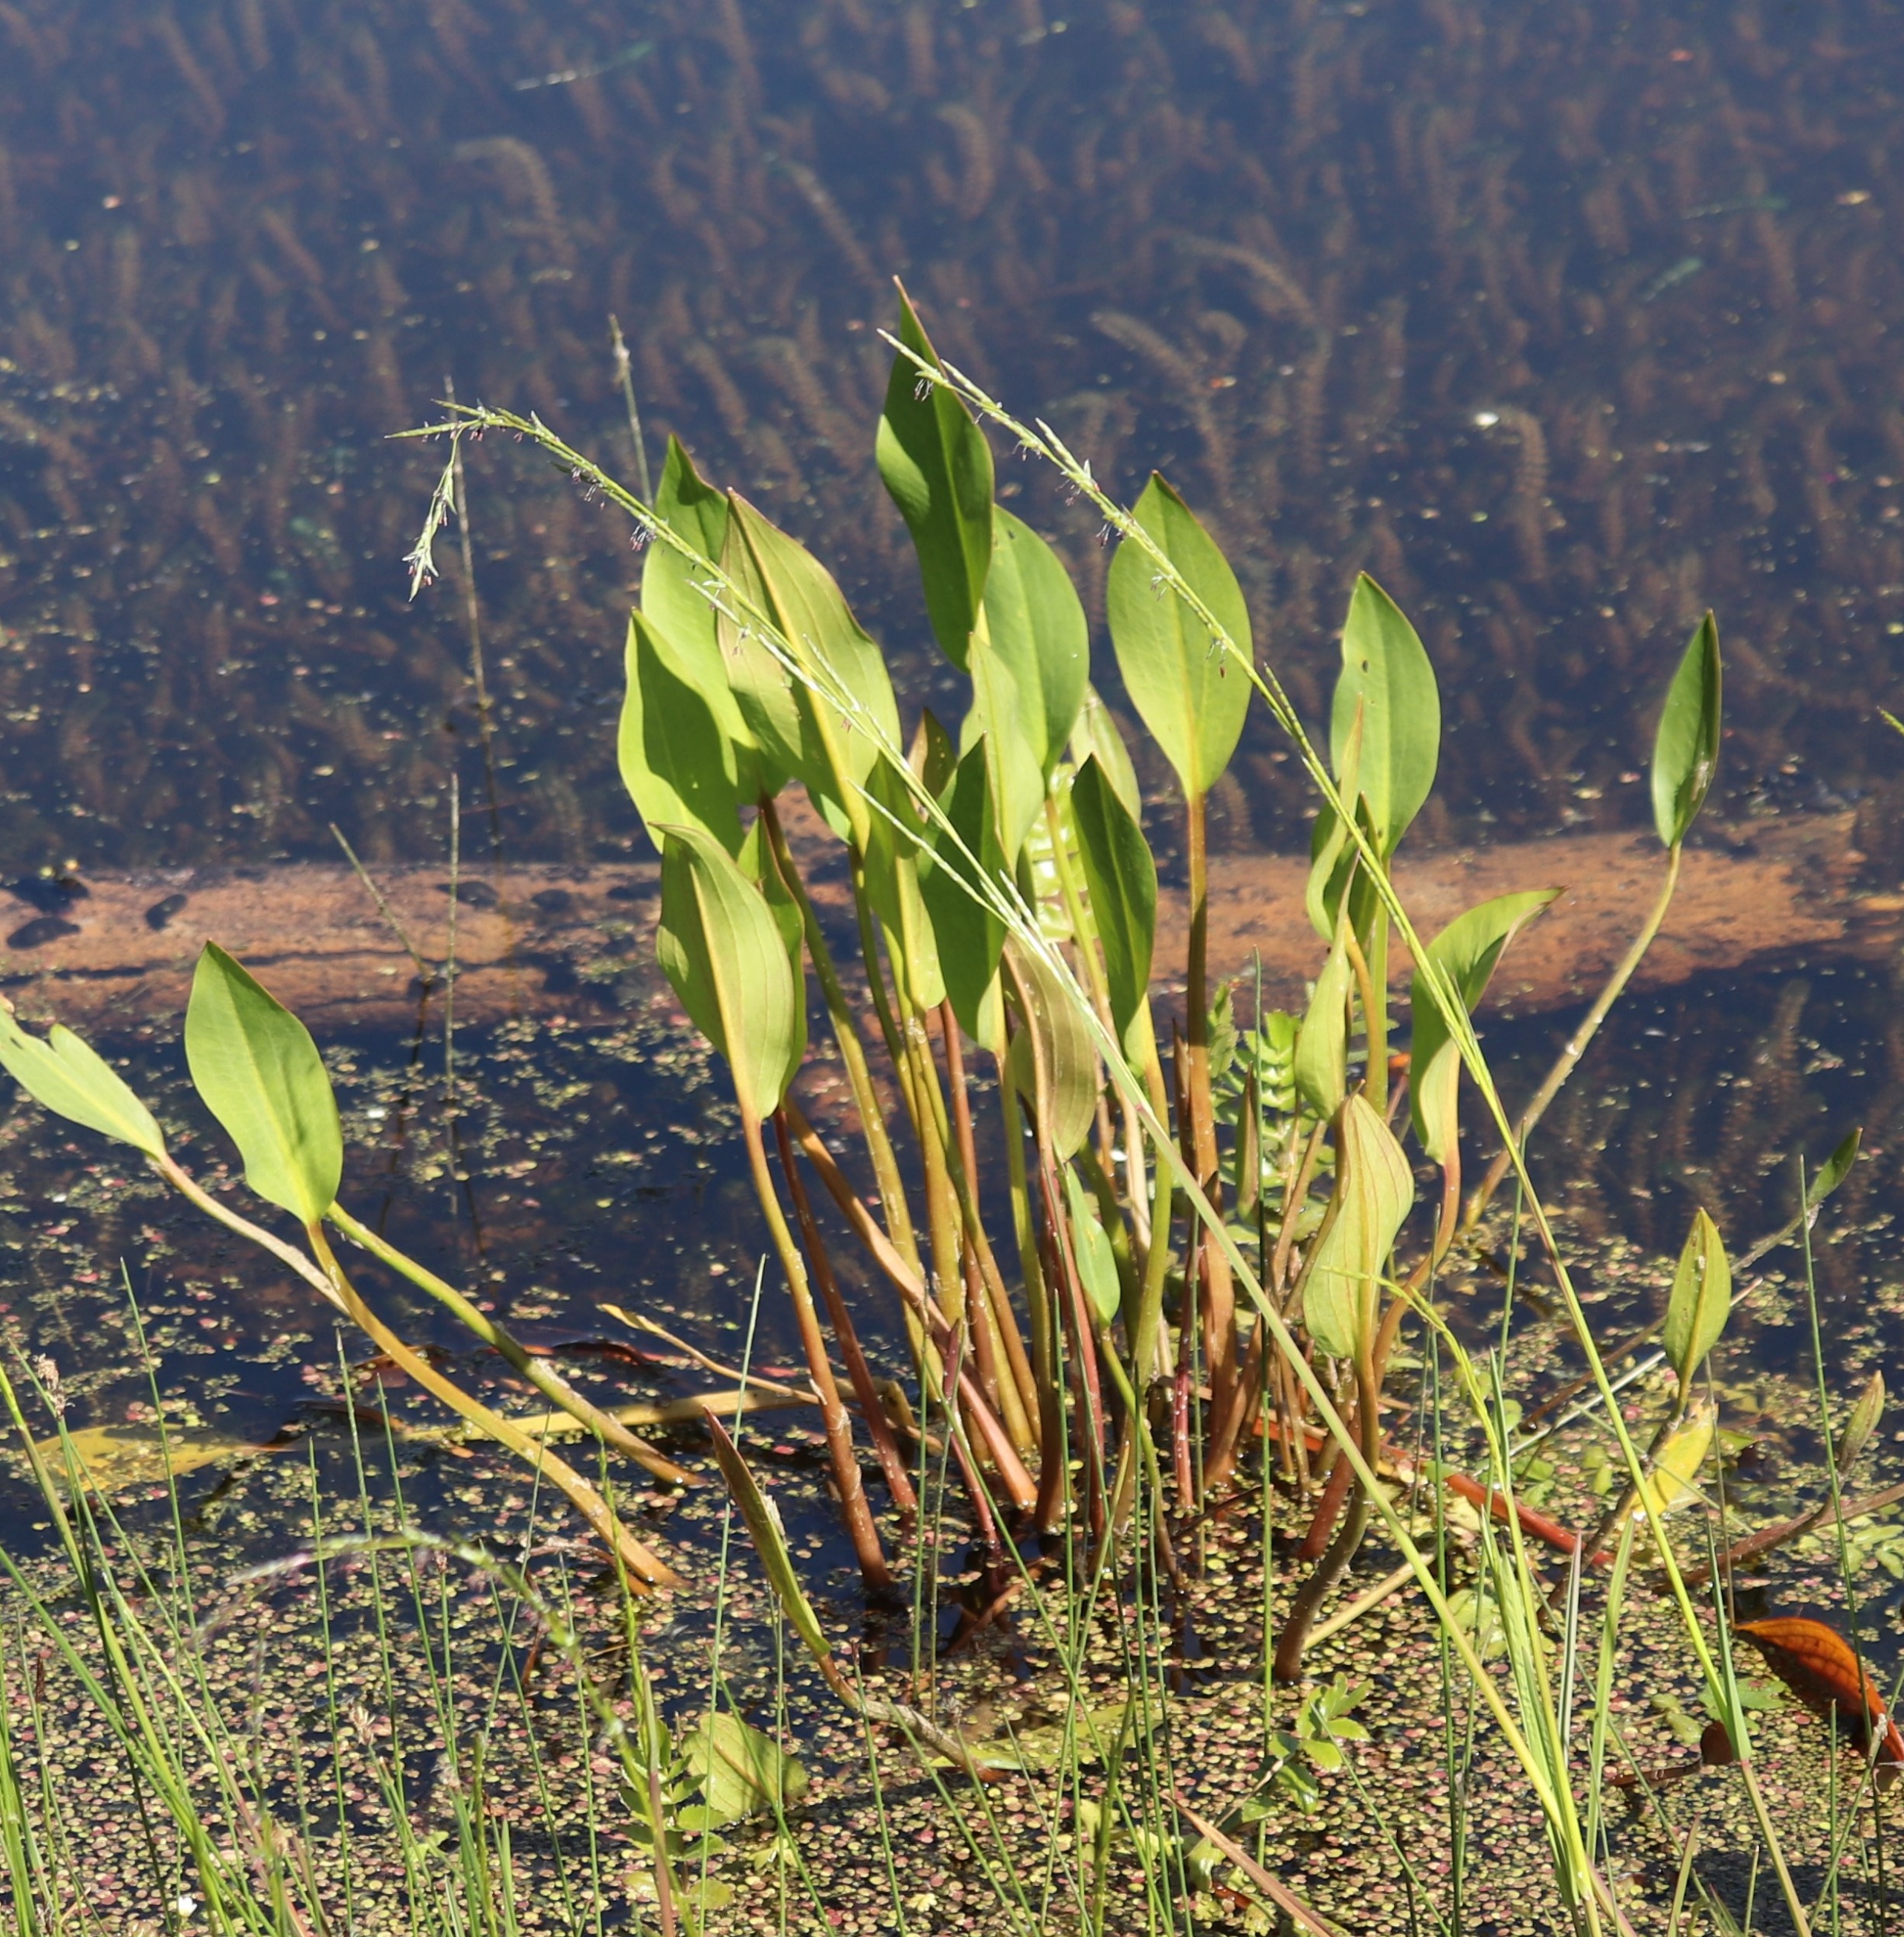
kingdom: Plantae
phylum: Tracheophyta
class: Liliopsida
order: Alismatales
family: Alismataceae
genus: Alisma
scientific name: Alisma plantago-aquatica
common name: Vejbred-skeblad
